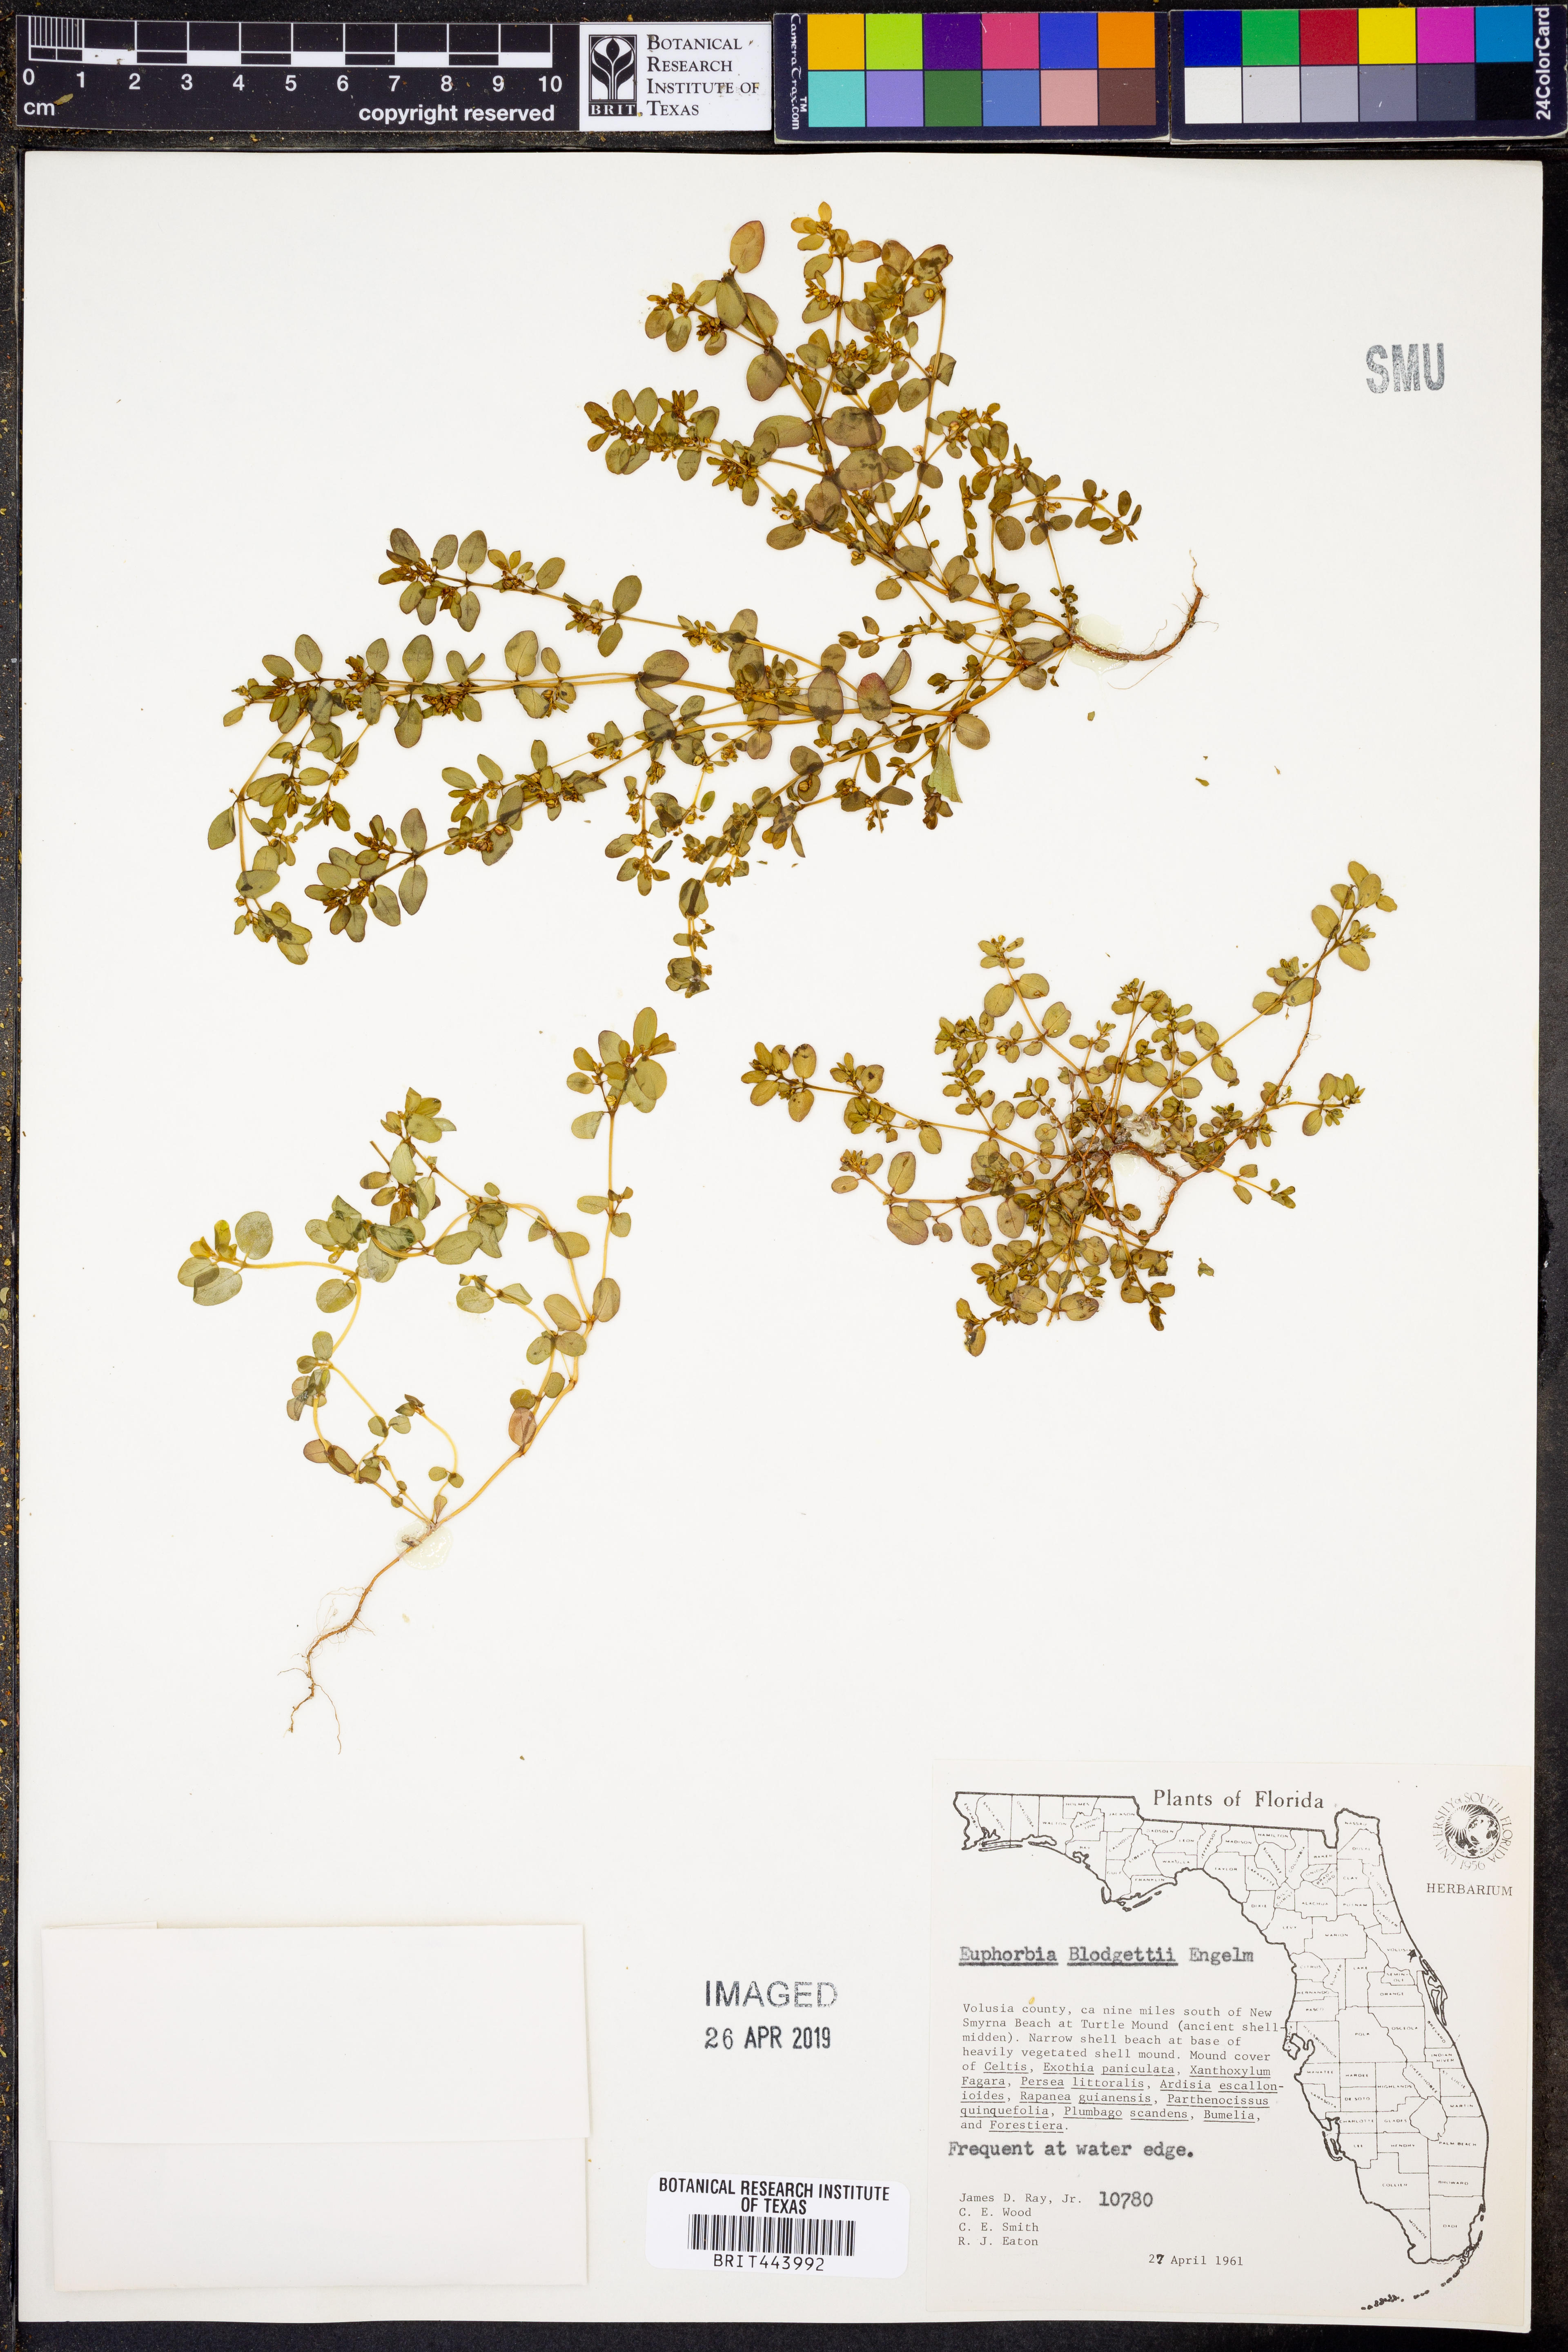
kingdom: Plantae
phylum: Tracheophyta
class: Magnoliopsida
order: Malpighiales
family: Euphorbiaceae
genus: Euphorbia
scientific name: Euphorbia blodgettii
